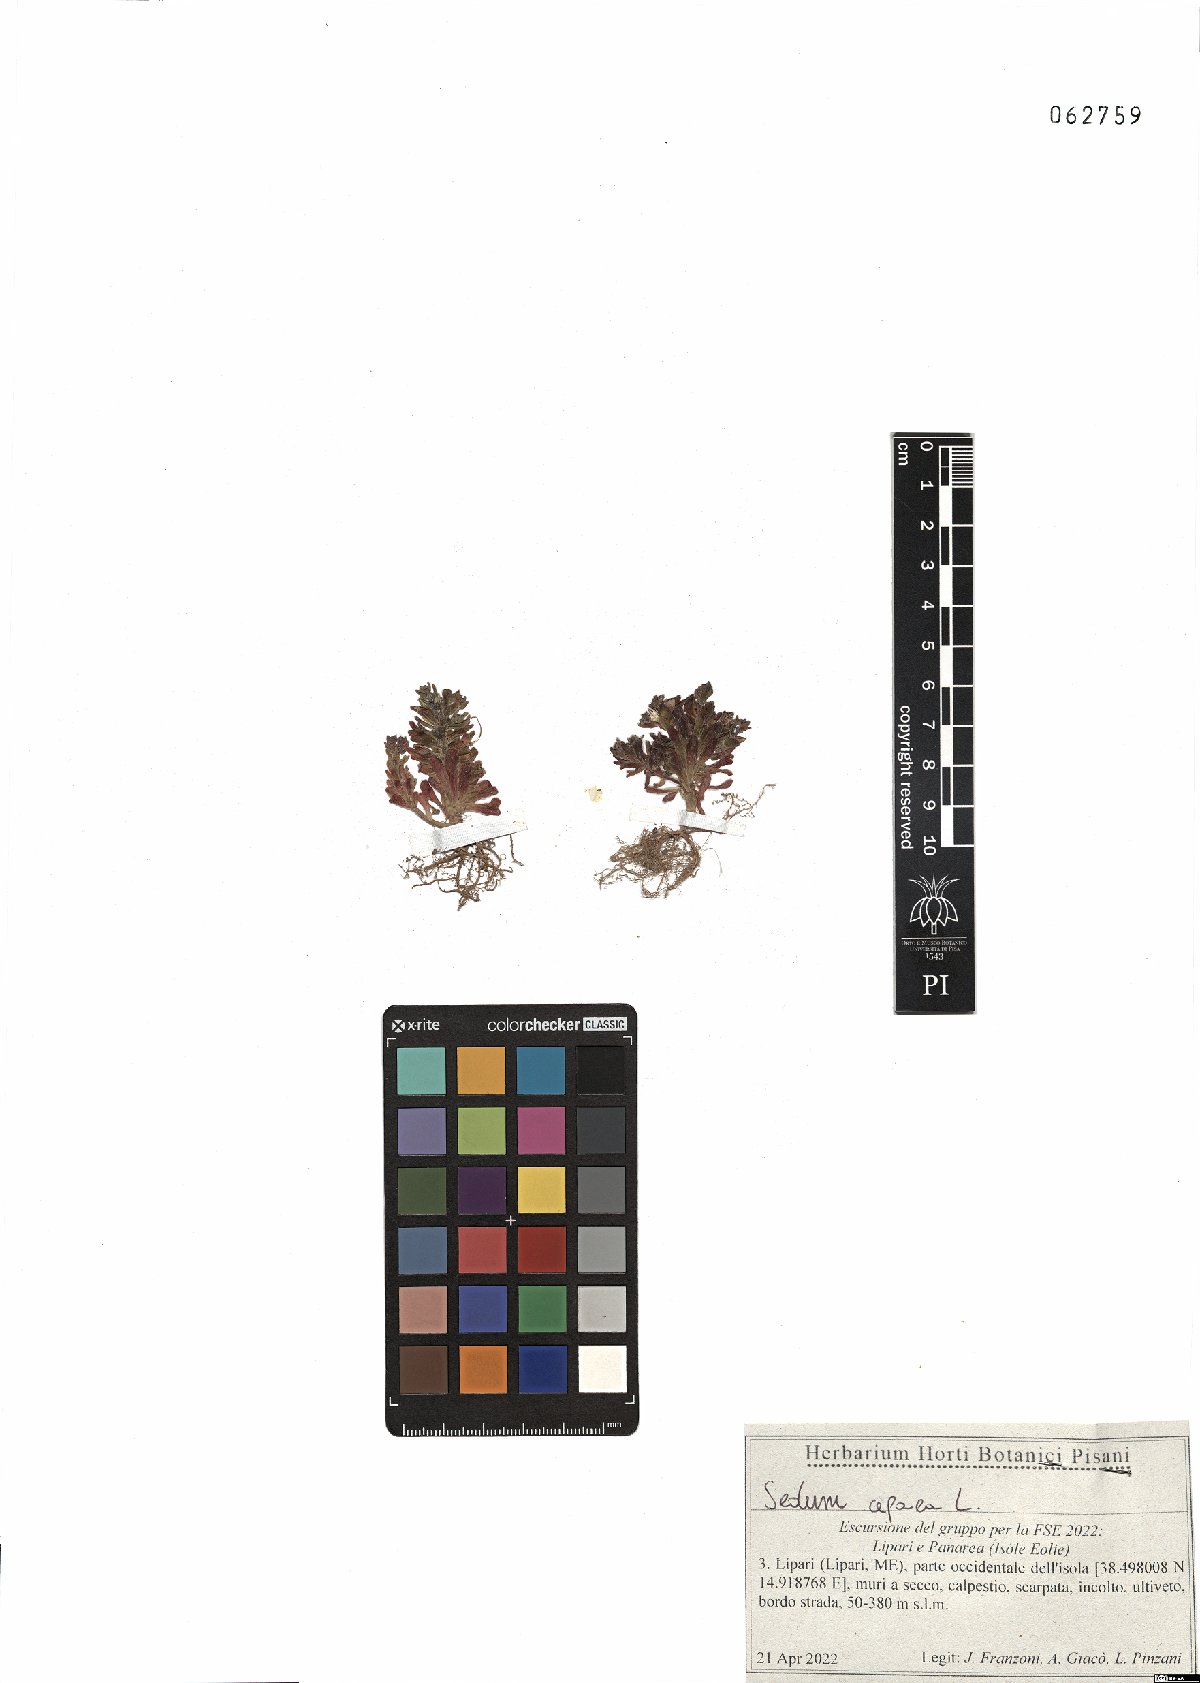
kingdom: Plantae
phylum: Tracheophyta
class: Magnoliopsida
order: Saxifragales
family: Crassulaceae
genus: Sedum
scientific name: Sedum cepaea
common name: Pink stonecrop
